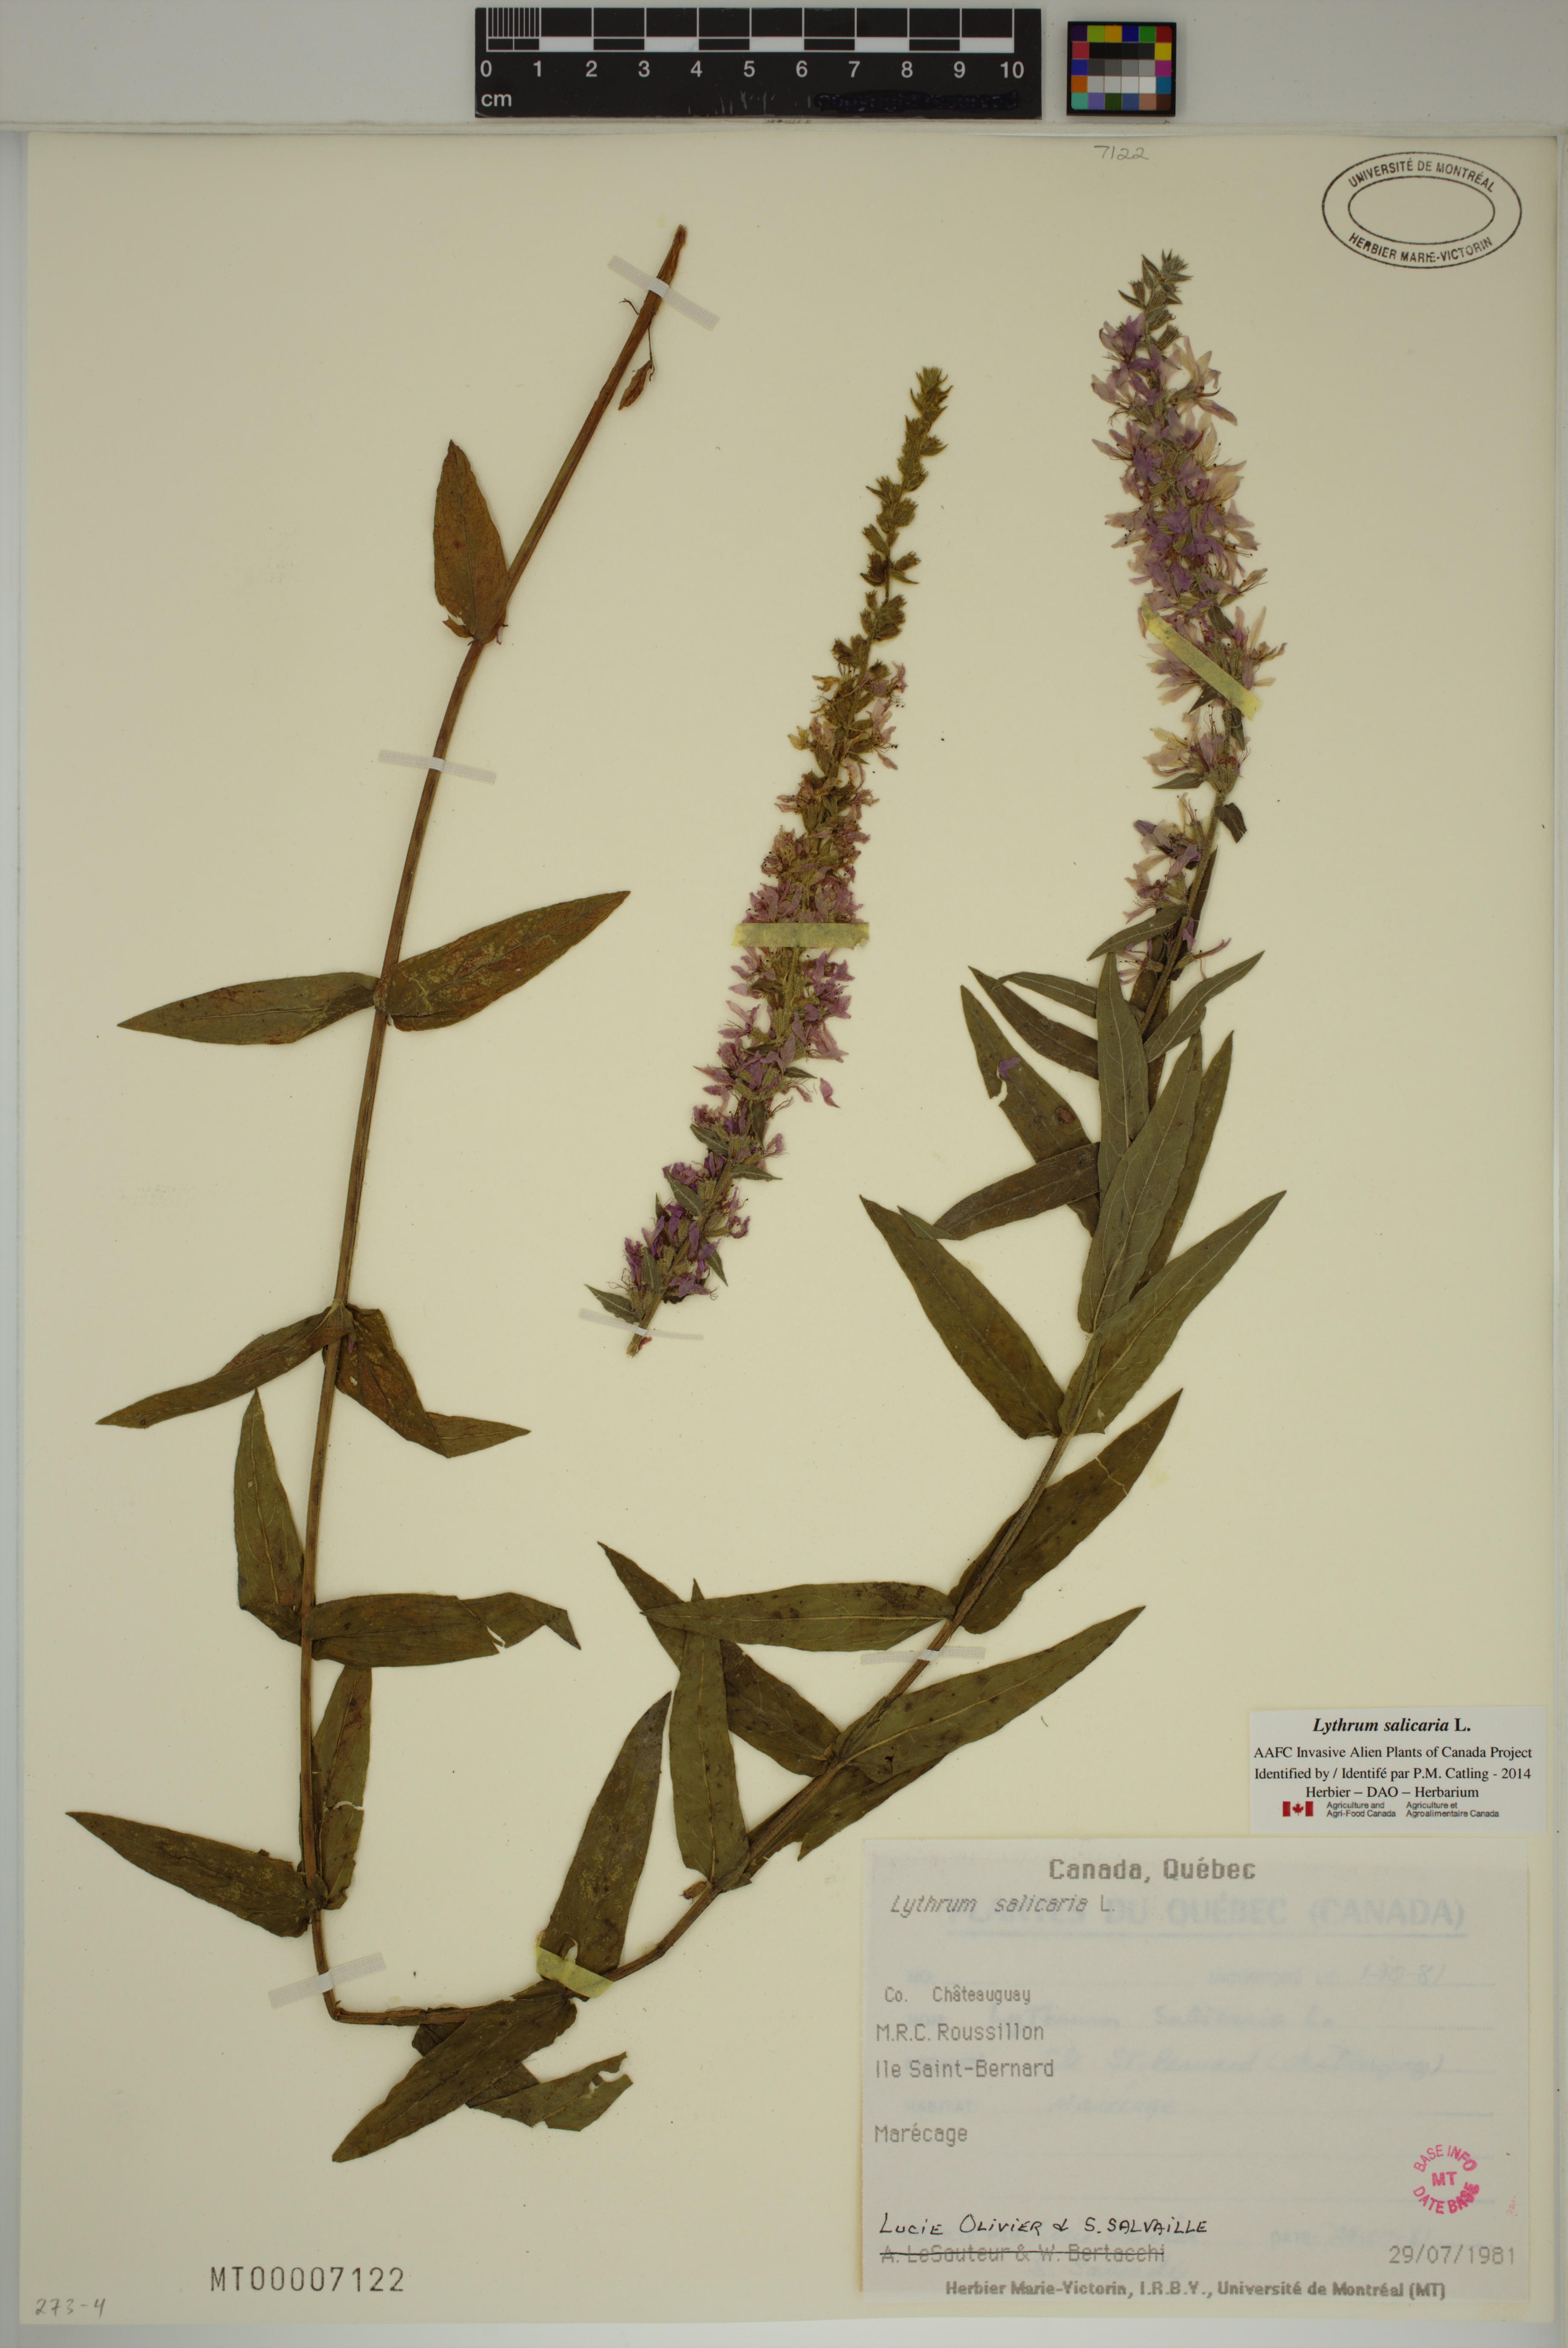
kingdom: Plantae
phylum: Tracheophyta
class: Magnoliopsida
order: Myrtales
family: Lythraceae
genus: Lythrum
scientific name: Lythrum salicaria
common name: Purple loosestrife
